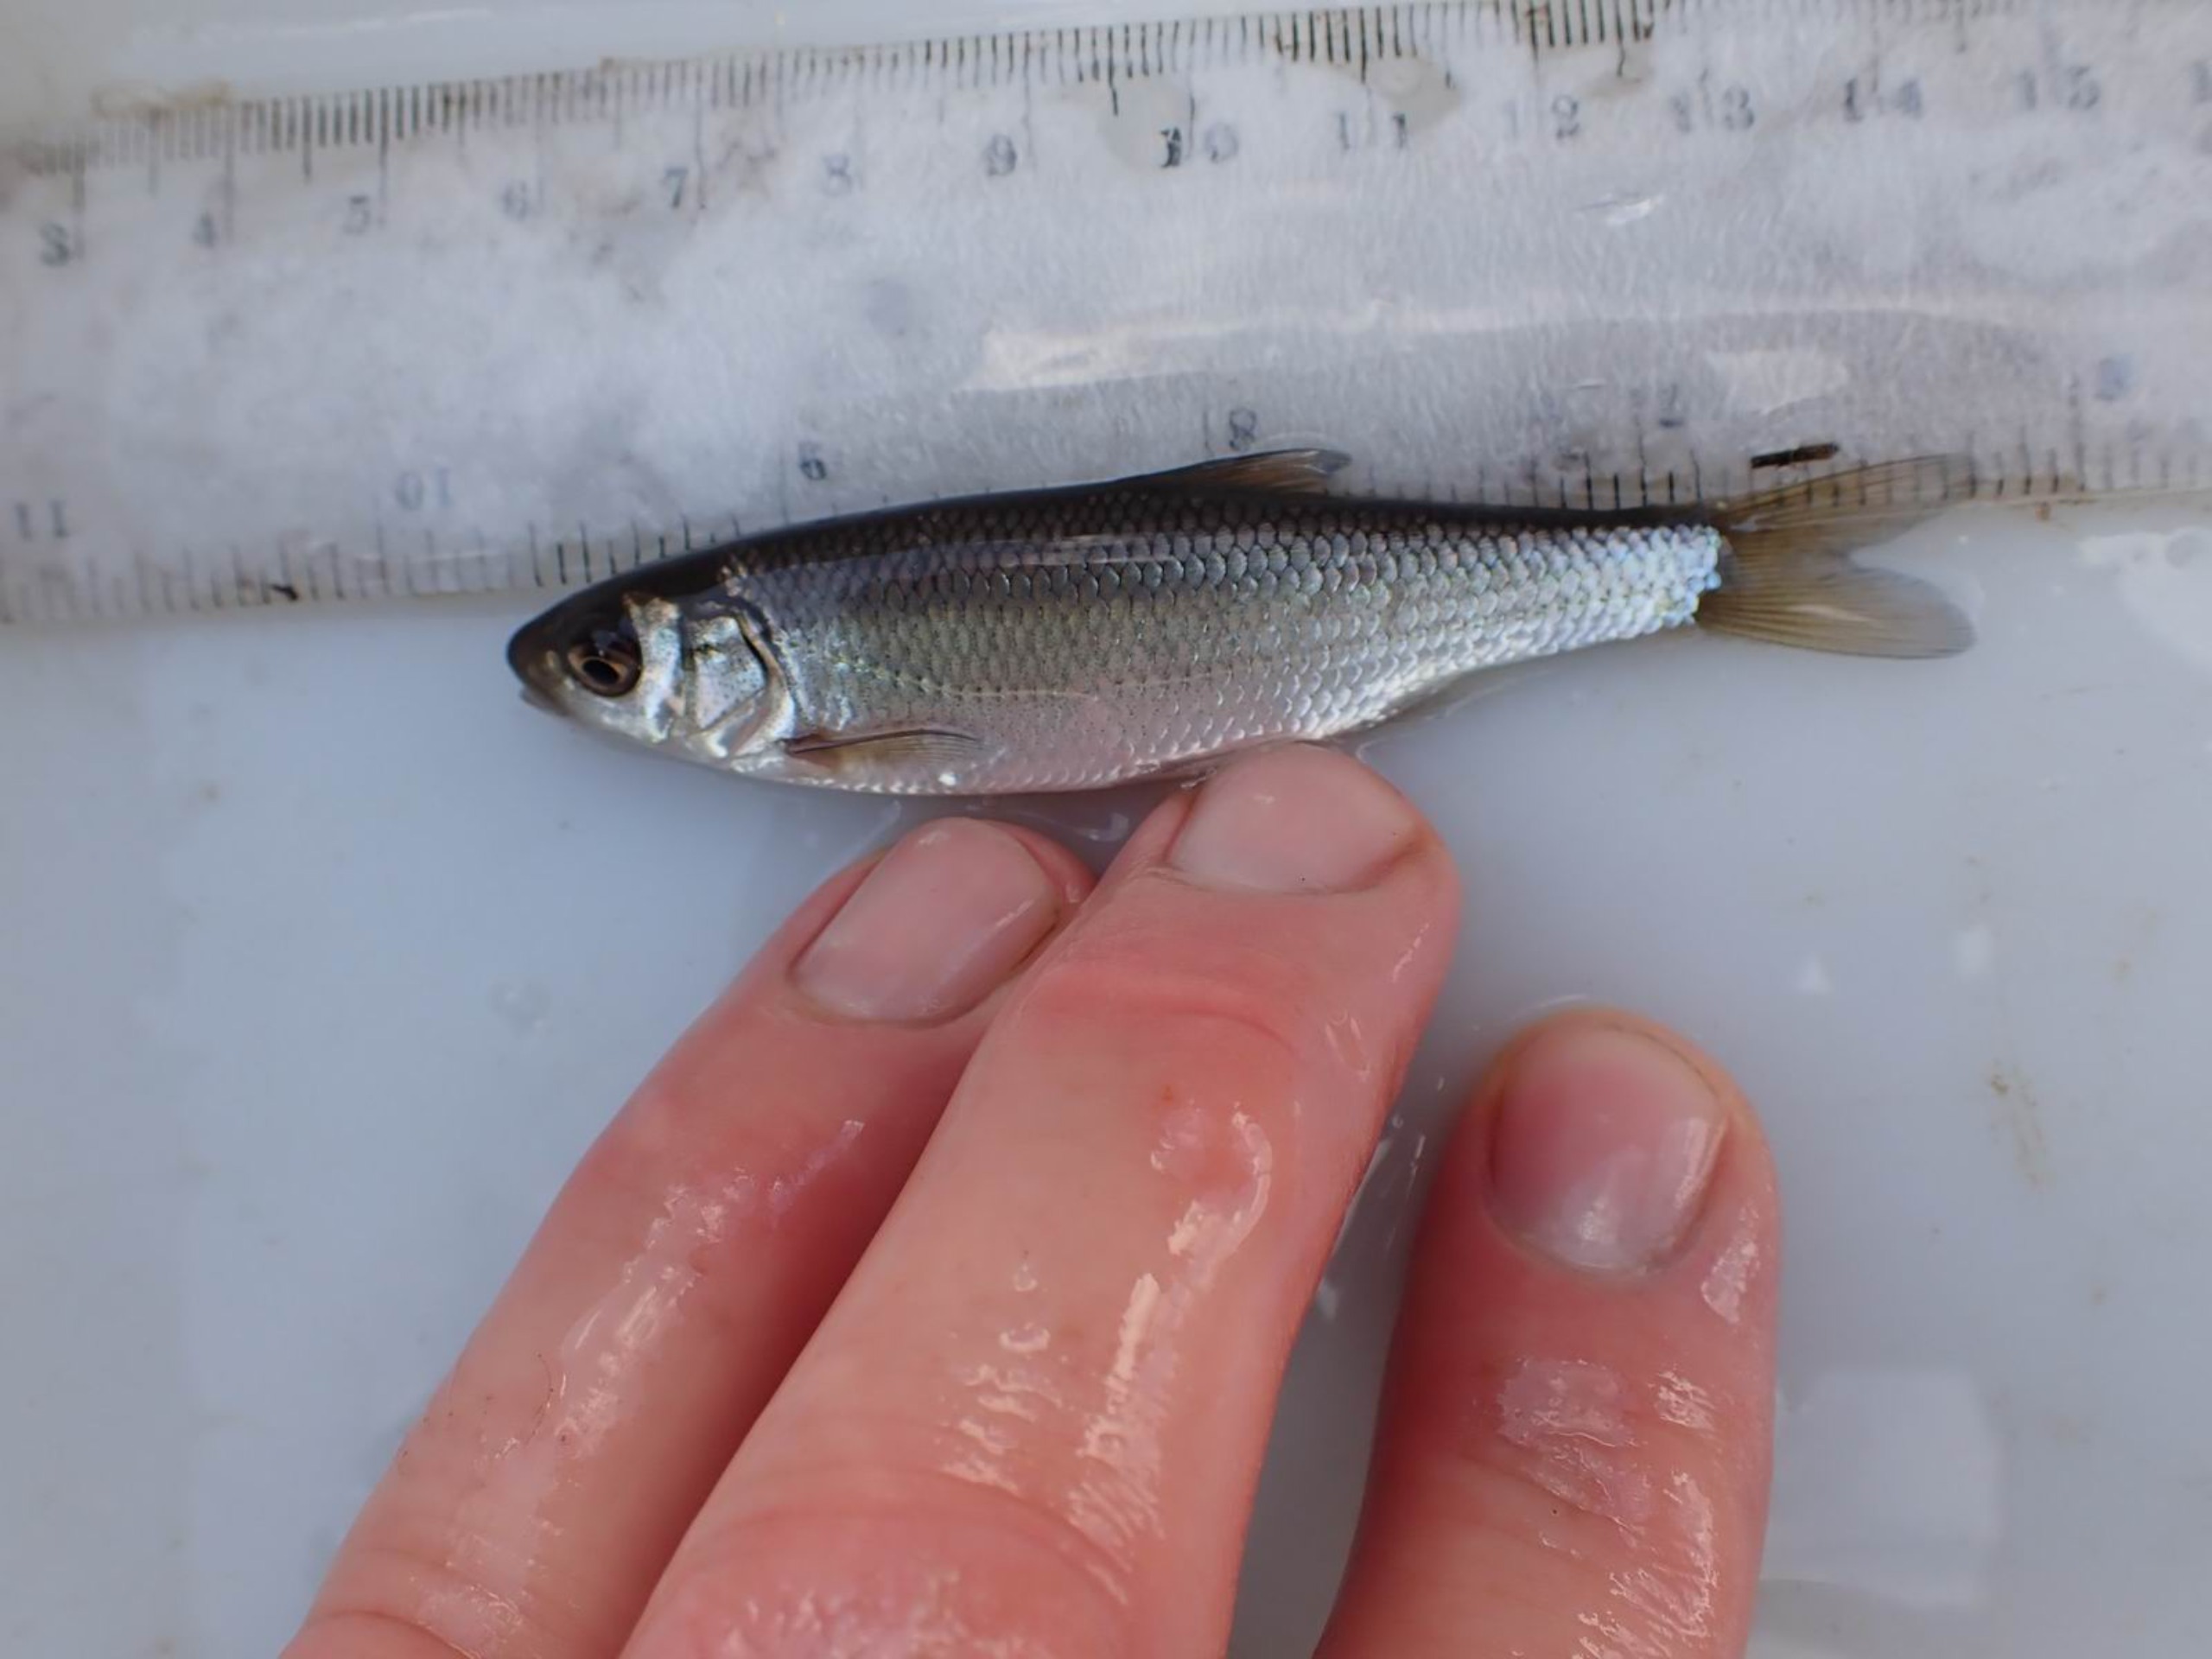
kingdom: Animalia
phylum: Chordata
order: Cypriniformes
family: Cyprinidae
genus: Leuciscus
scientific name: Leuciscus leuciscus
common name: Strømskalle
